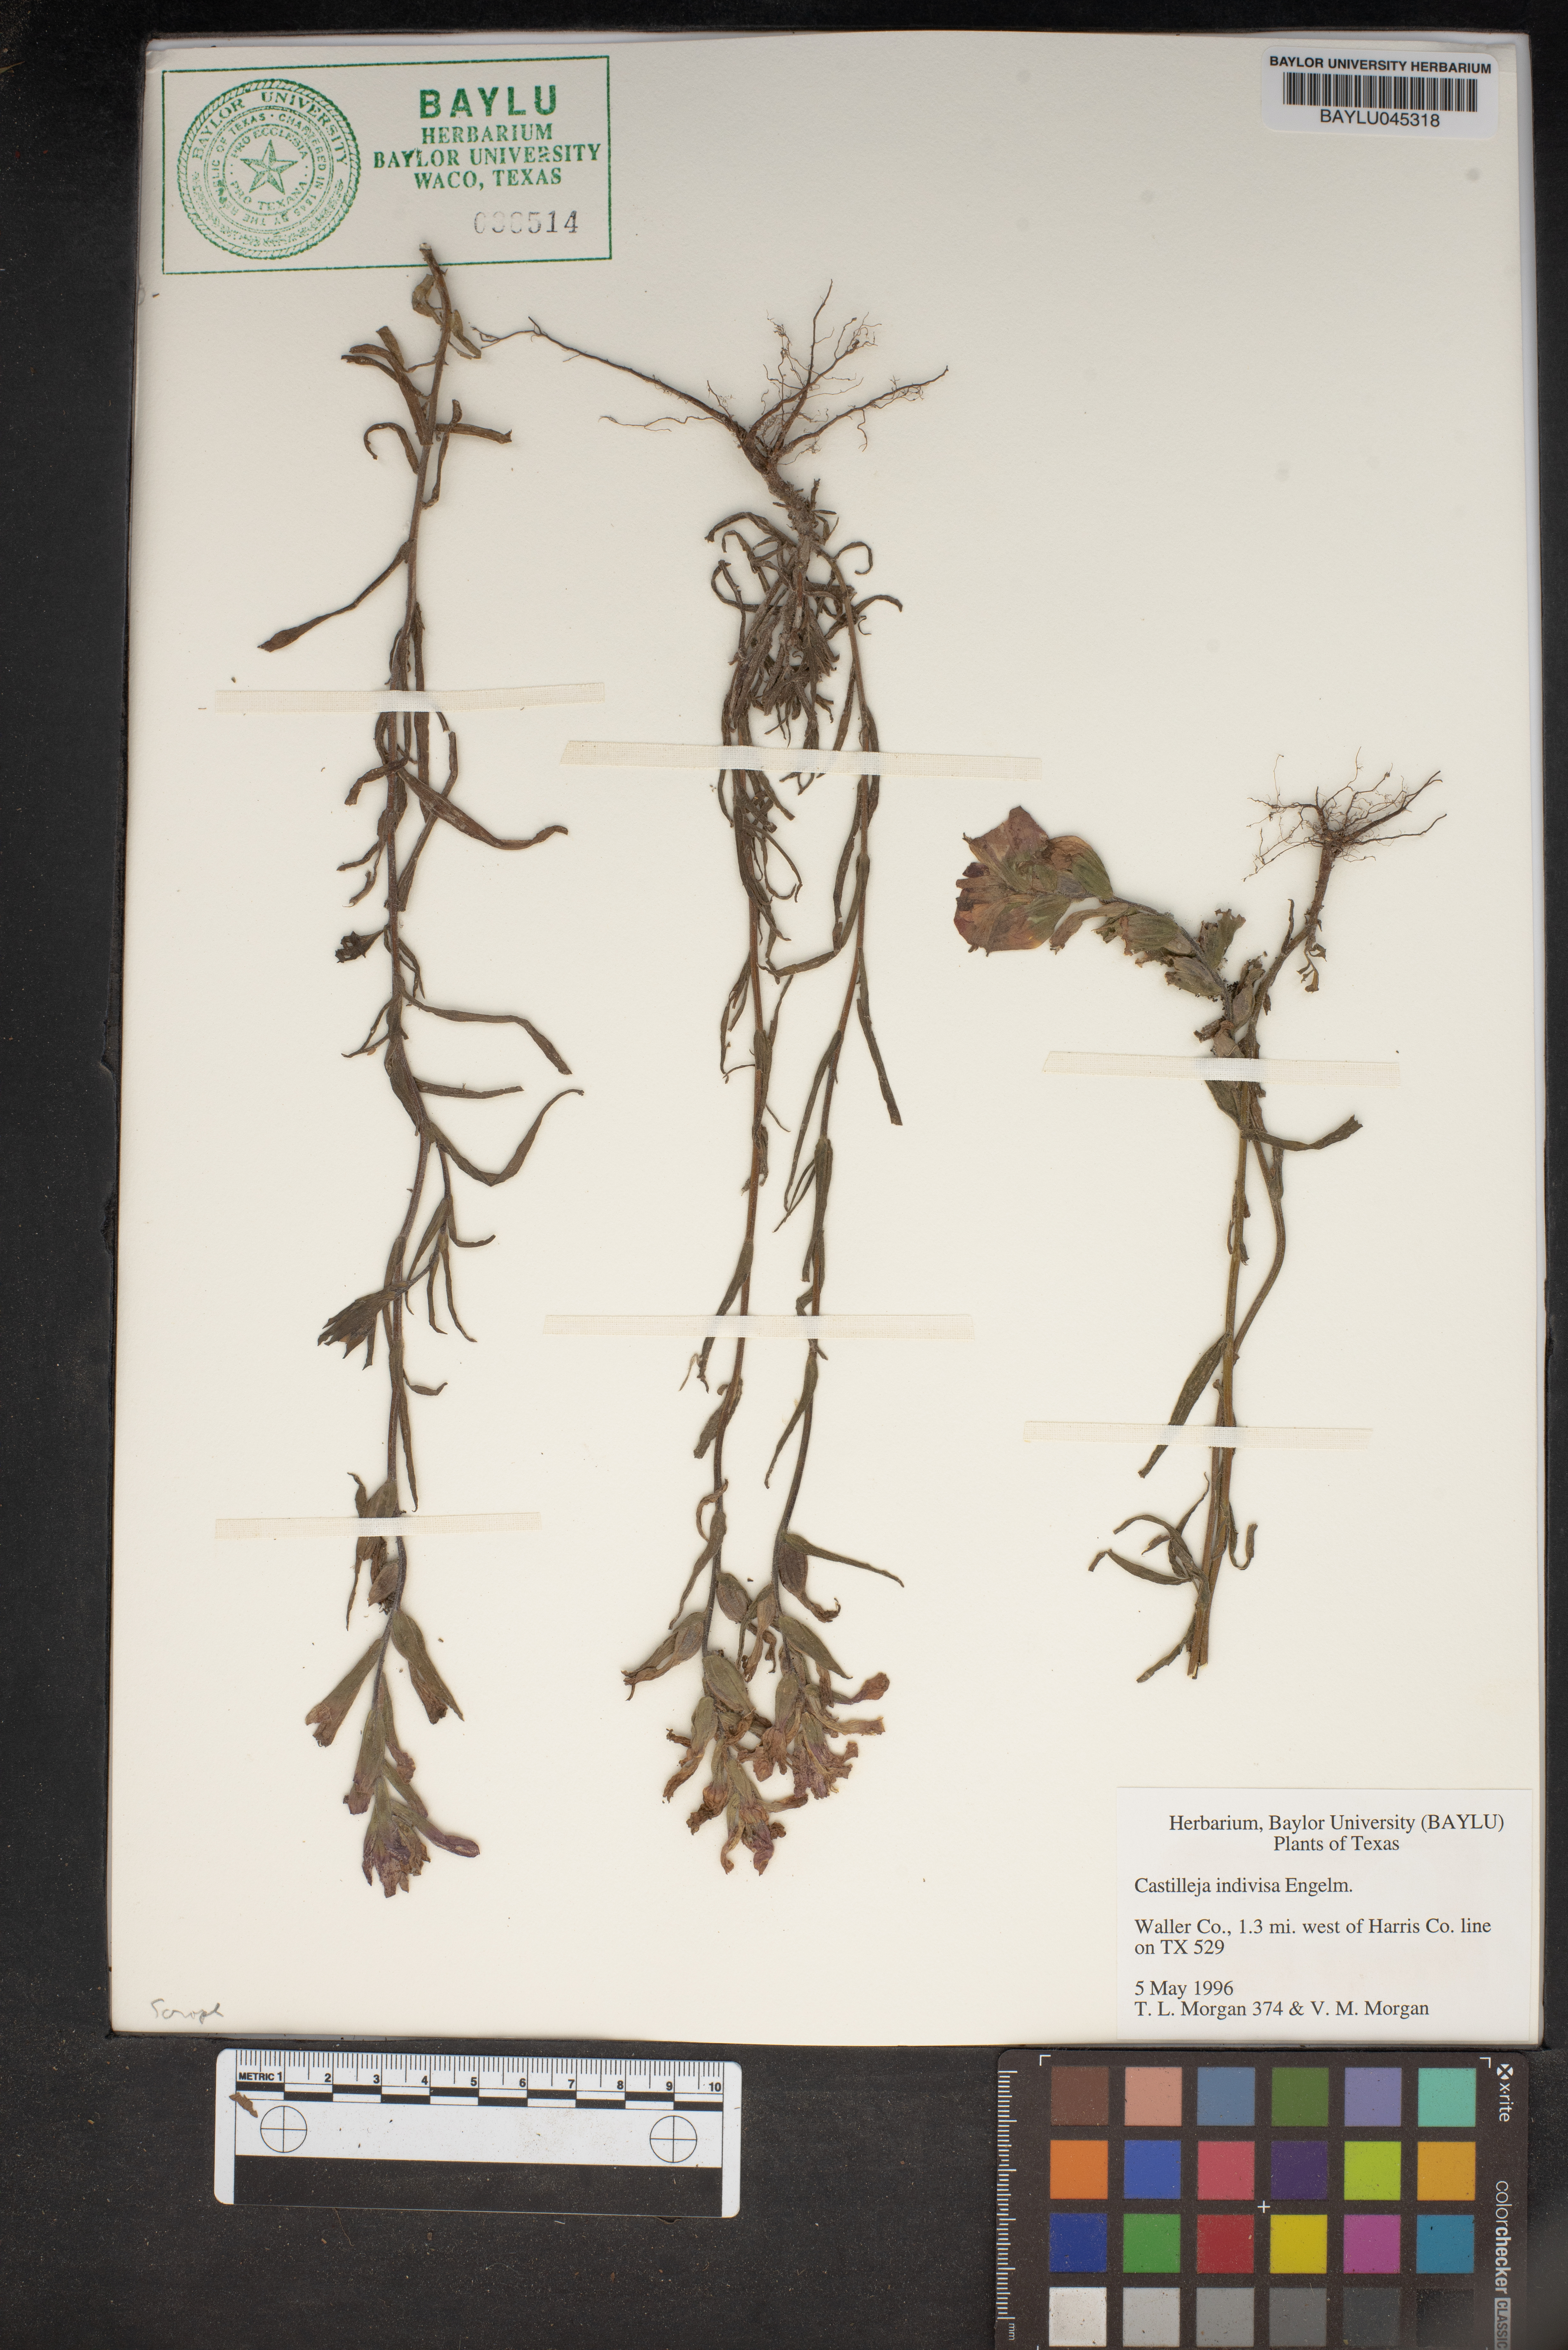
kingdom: Plantae
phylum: Tracheophyta
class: Magnoliopsida
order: Lamiales
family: Orobanchaceae
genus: Castilleja
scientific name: Castilleja indivisa
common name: Texas paintbrush
